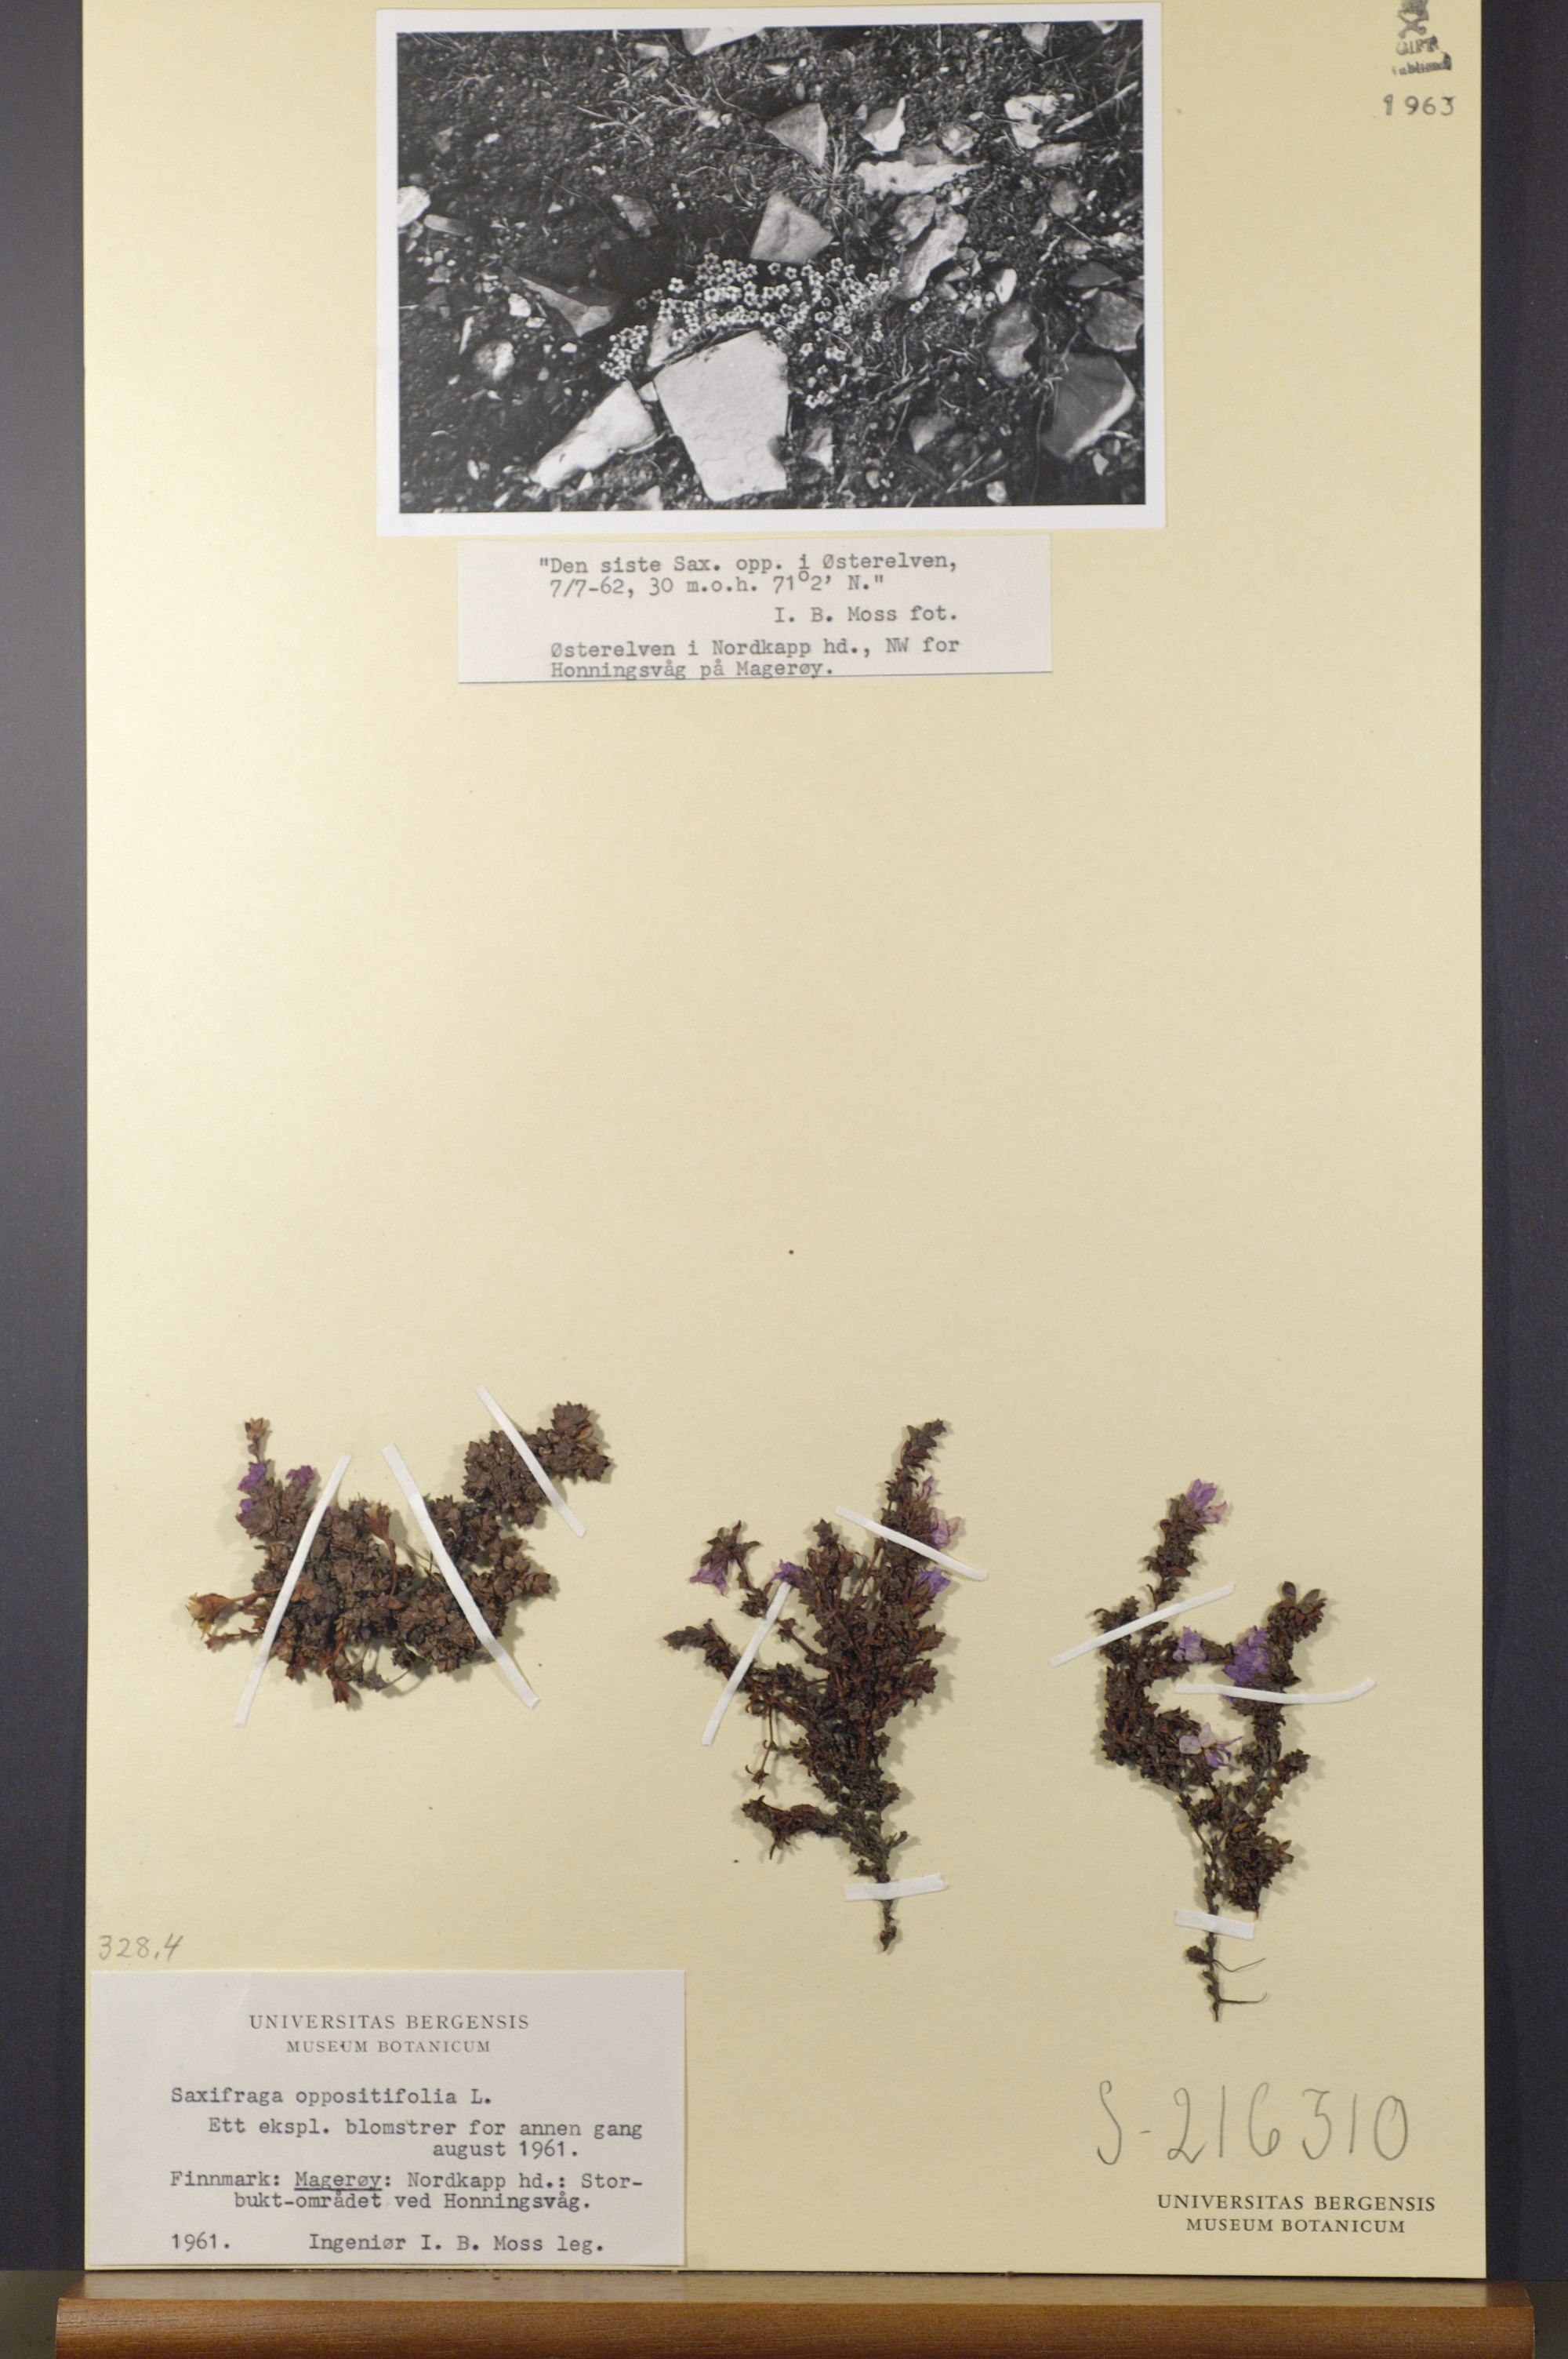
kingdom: Plantae
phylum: Tracheophyta
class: Magnoliopsida
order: Saxifragales
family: Saxifragaceae
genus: Saxifraga
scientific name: Saxifraga oppositifolia
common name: Purple saxifrage
